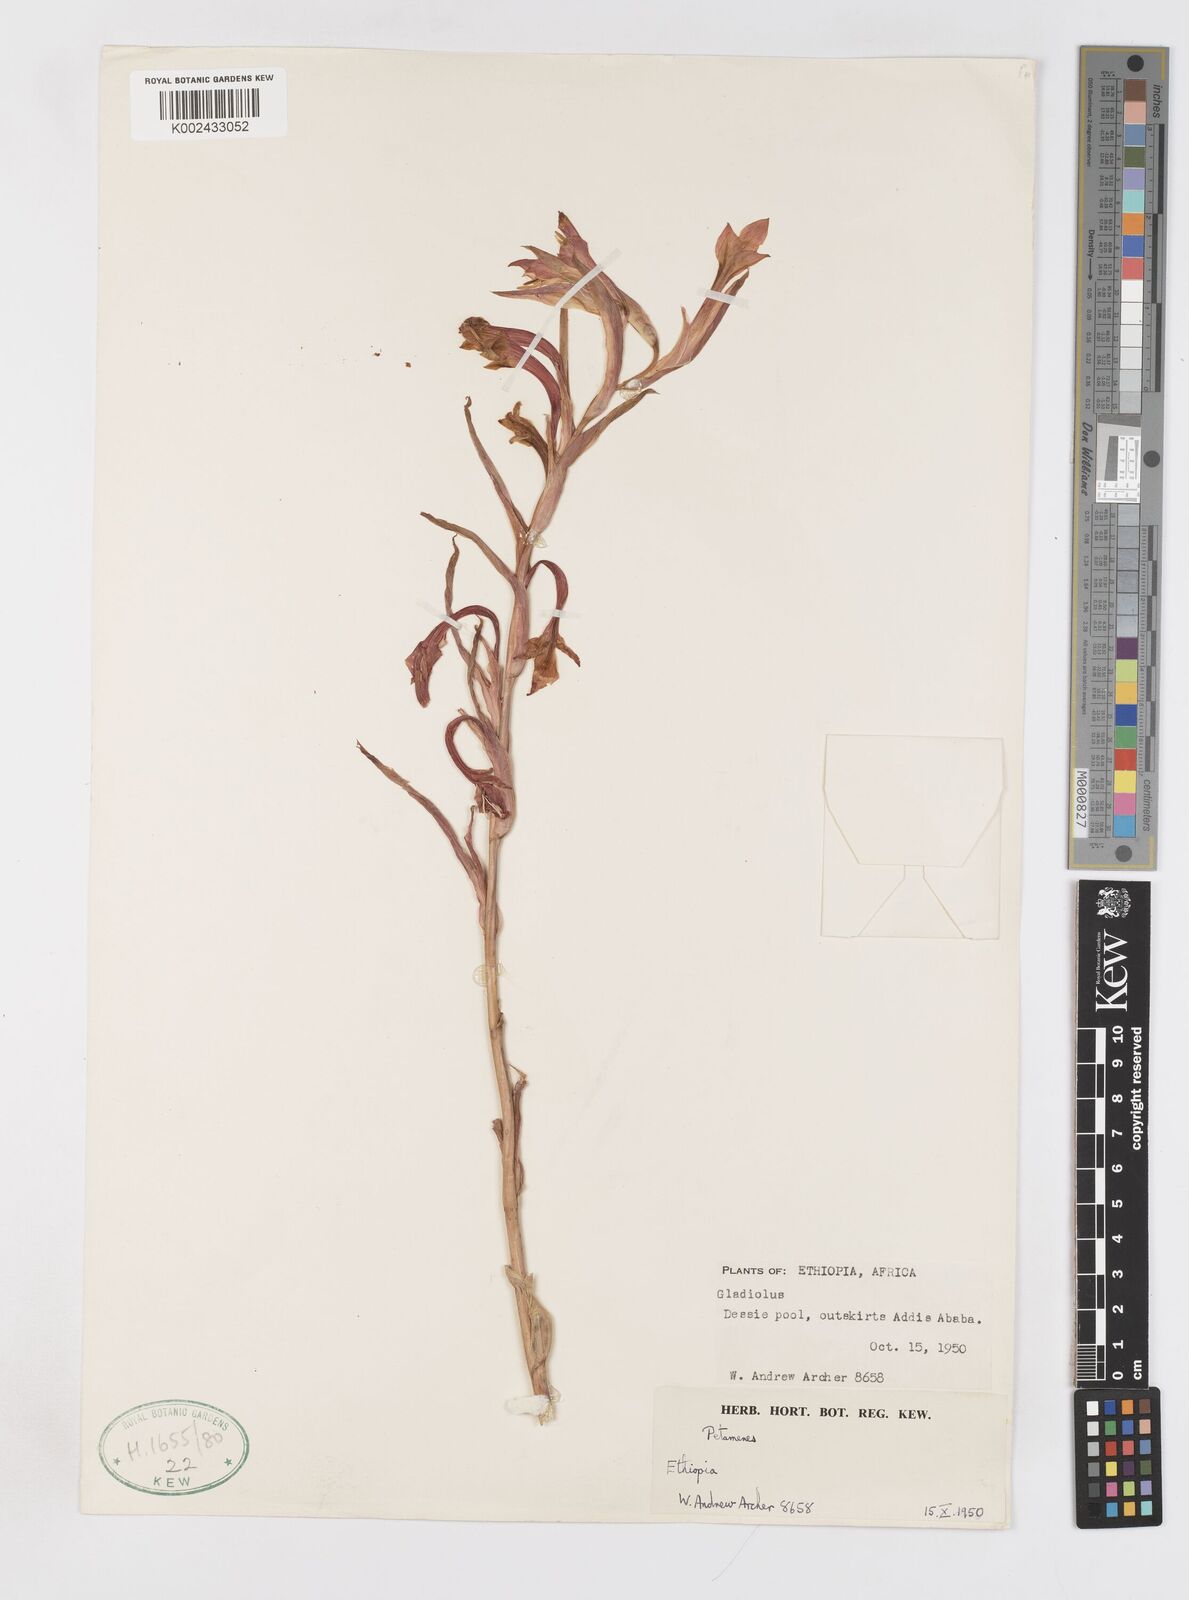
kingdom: Plantae
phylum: Tracheophyta
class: Liliopsida
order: Asparagales
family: Iridaceae
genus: Gladiolus
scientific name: Gladiolus abyssinicus
